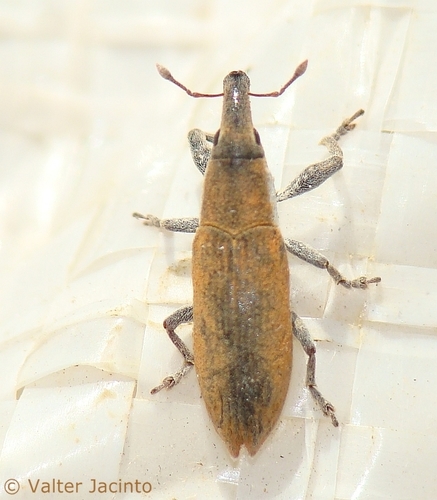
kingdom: Animalia
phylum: Arthropoda
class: Insecta
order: Coleoptera
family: Curculionidae
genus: Lixus
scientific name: Lixus acicularis
